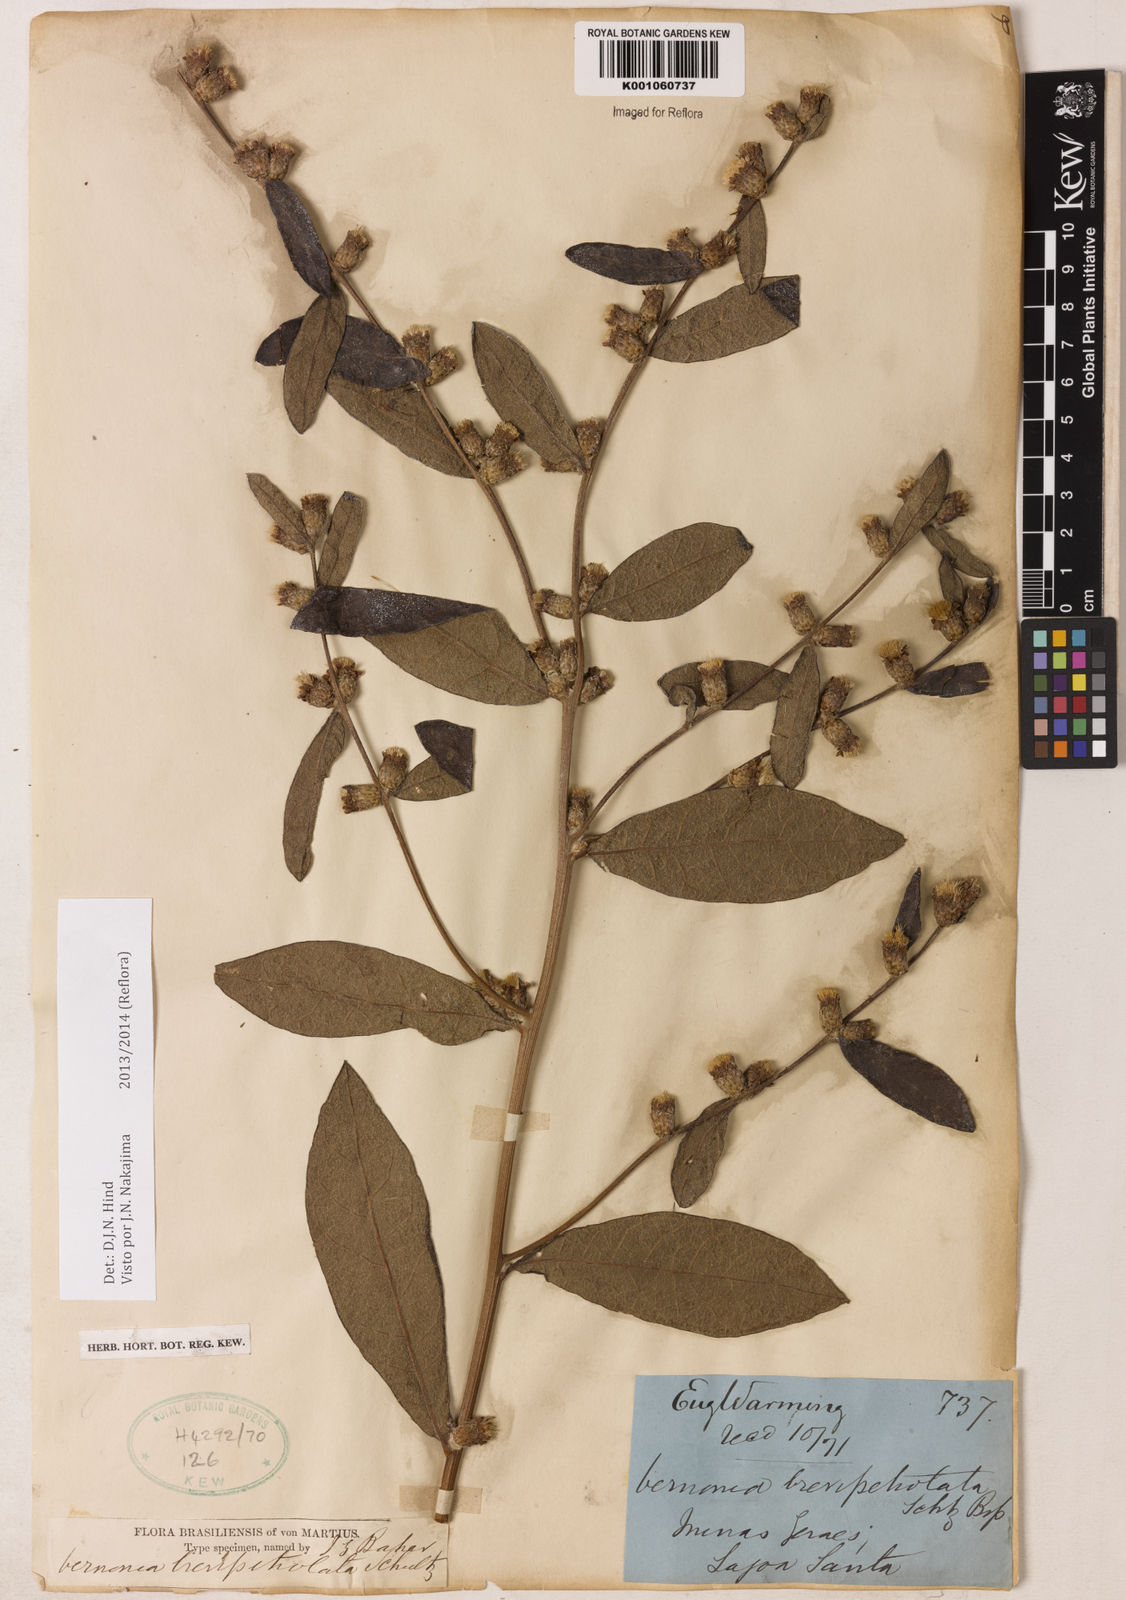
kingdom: Plantae
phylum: Tracheophyta
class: Magnoliopsida
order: Asterales
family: Asteraceae
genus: Lessingianthus
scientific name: Lessingianthus brevipetiolatus
